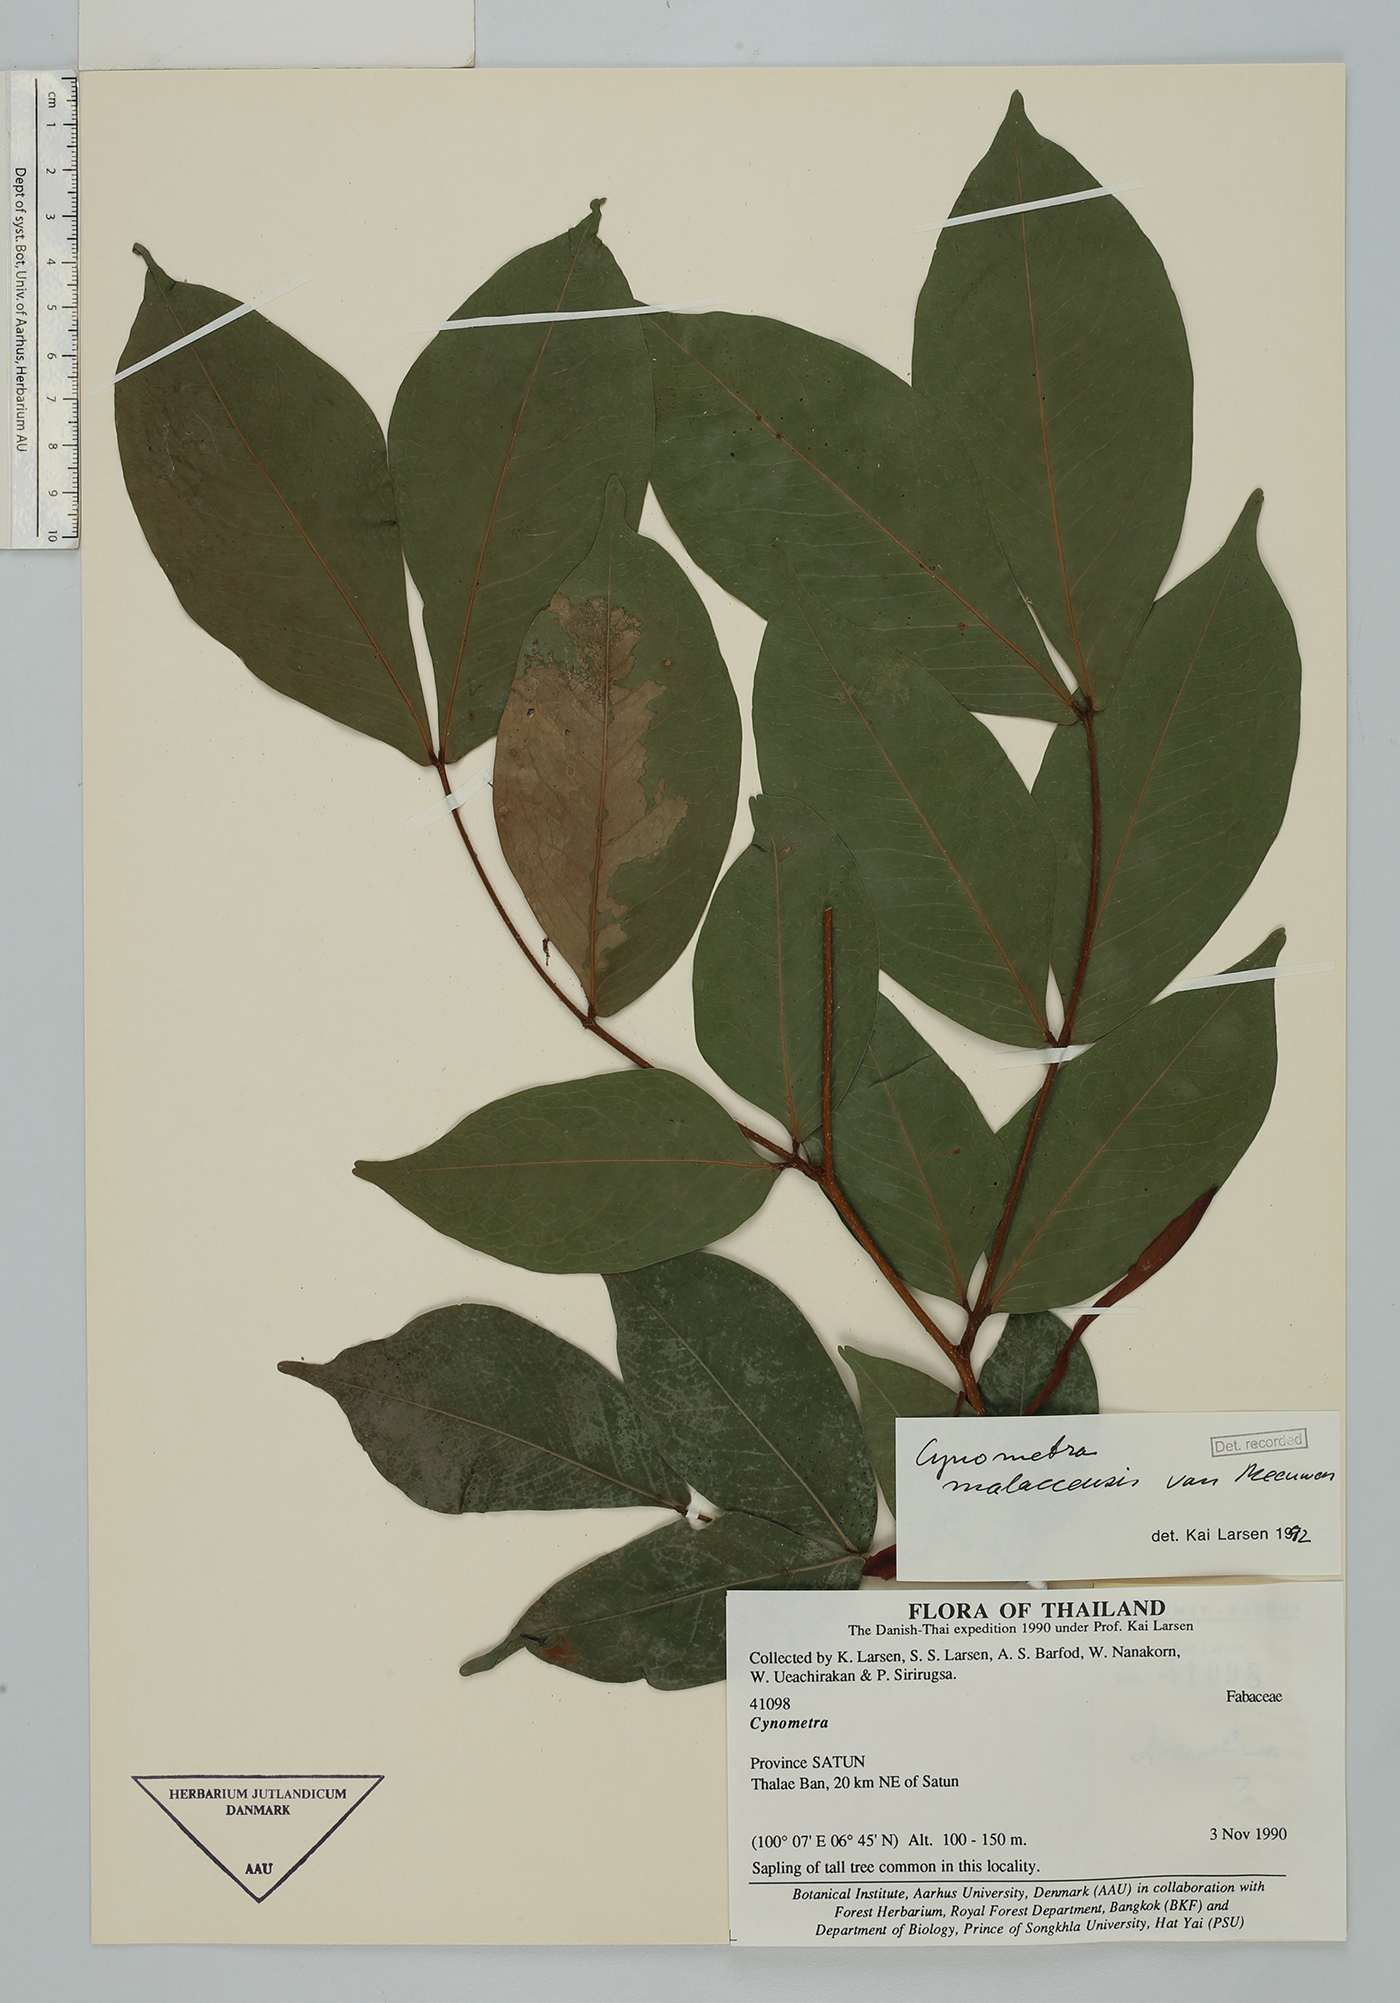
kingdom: Plantae
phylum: Tracheophyta
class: Magnoliopsida
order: Fabales
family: Fabaceae
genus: Cynometra
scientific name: Cynometra malaccensis
